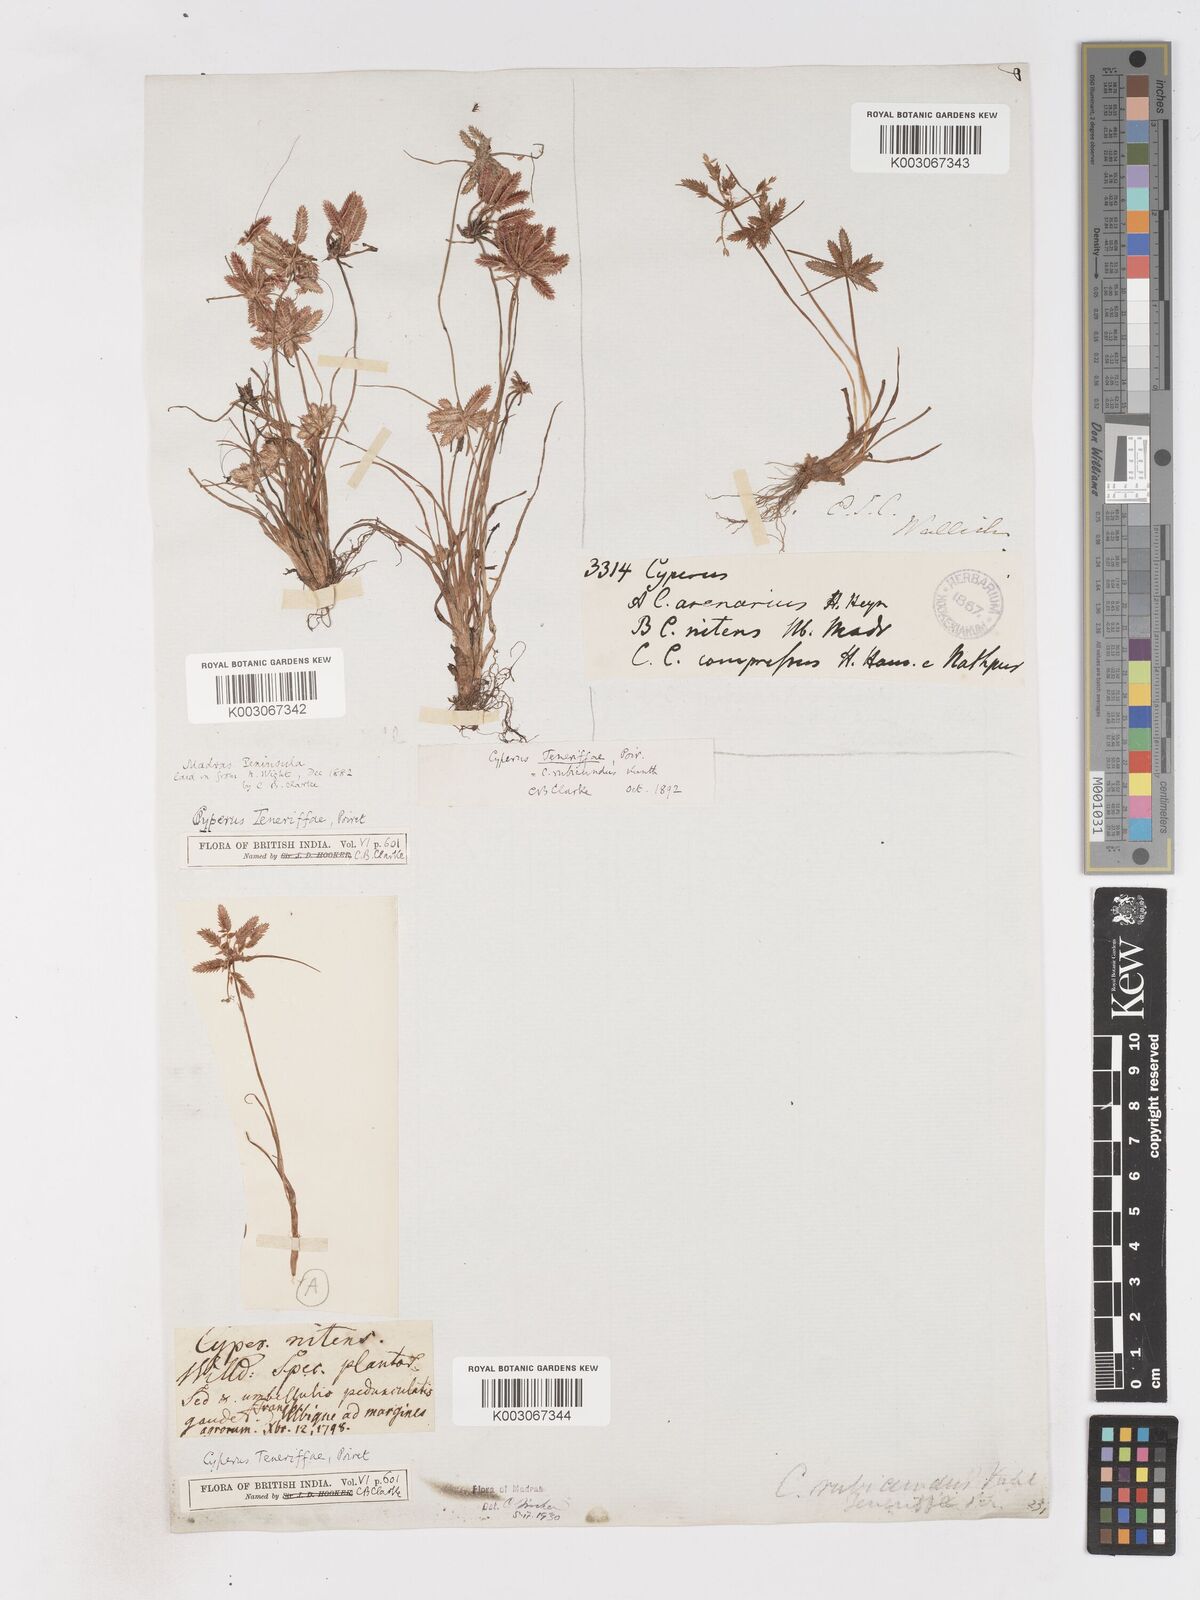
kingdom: Plantae
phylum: Tracheophyta
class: Liliopsida
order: Poales
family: Cyperaceae
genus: Cyperus
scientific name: Cyperus rubicundus
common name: Coco-grass
